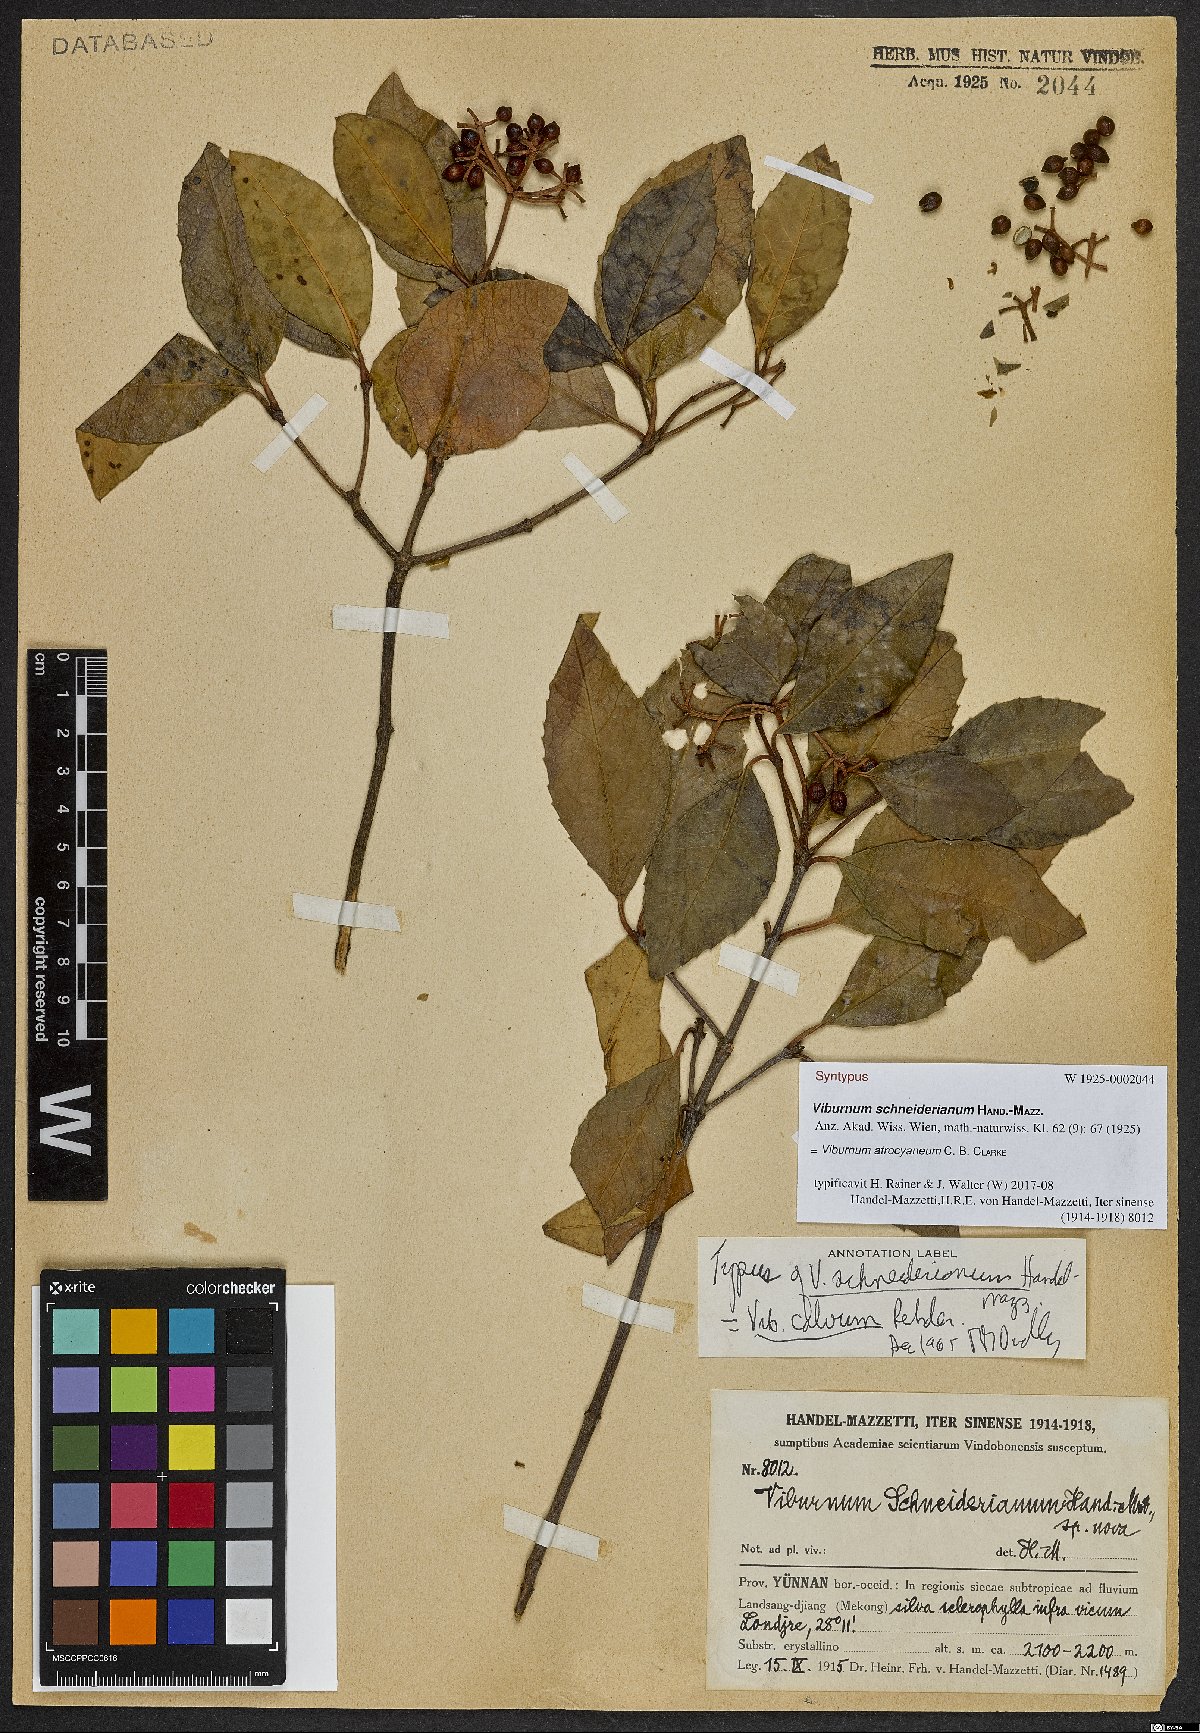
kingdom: Plantae
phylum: Tracheophyta
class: Magnoliopsida
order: Dipsacales
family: Viburnaceae
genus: Viburnum
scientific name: Viburnum atrocyaneum
